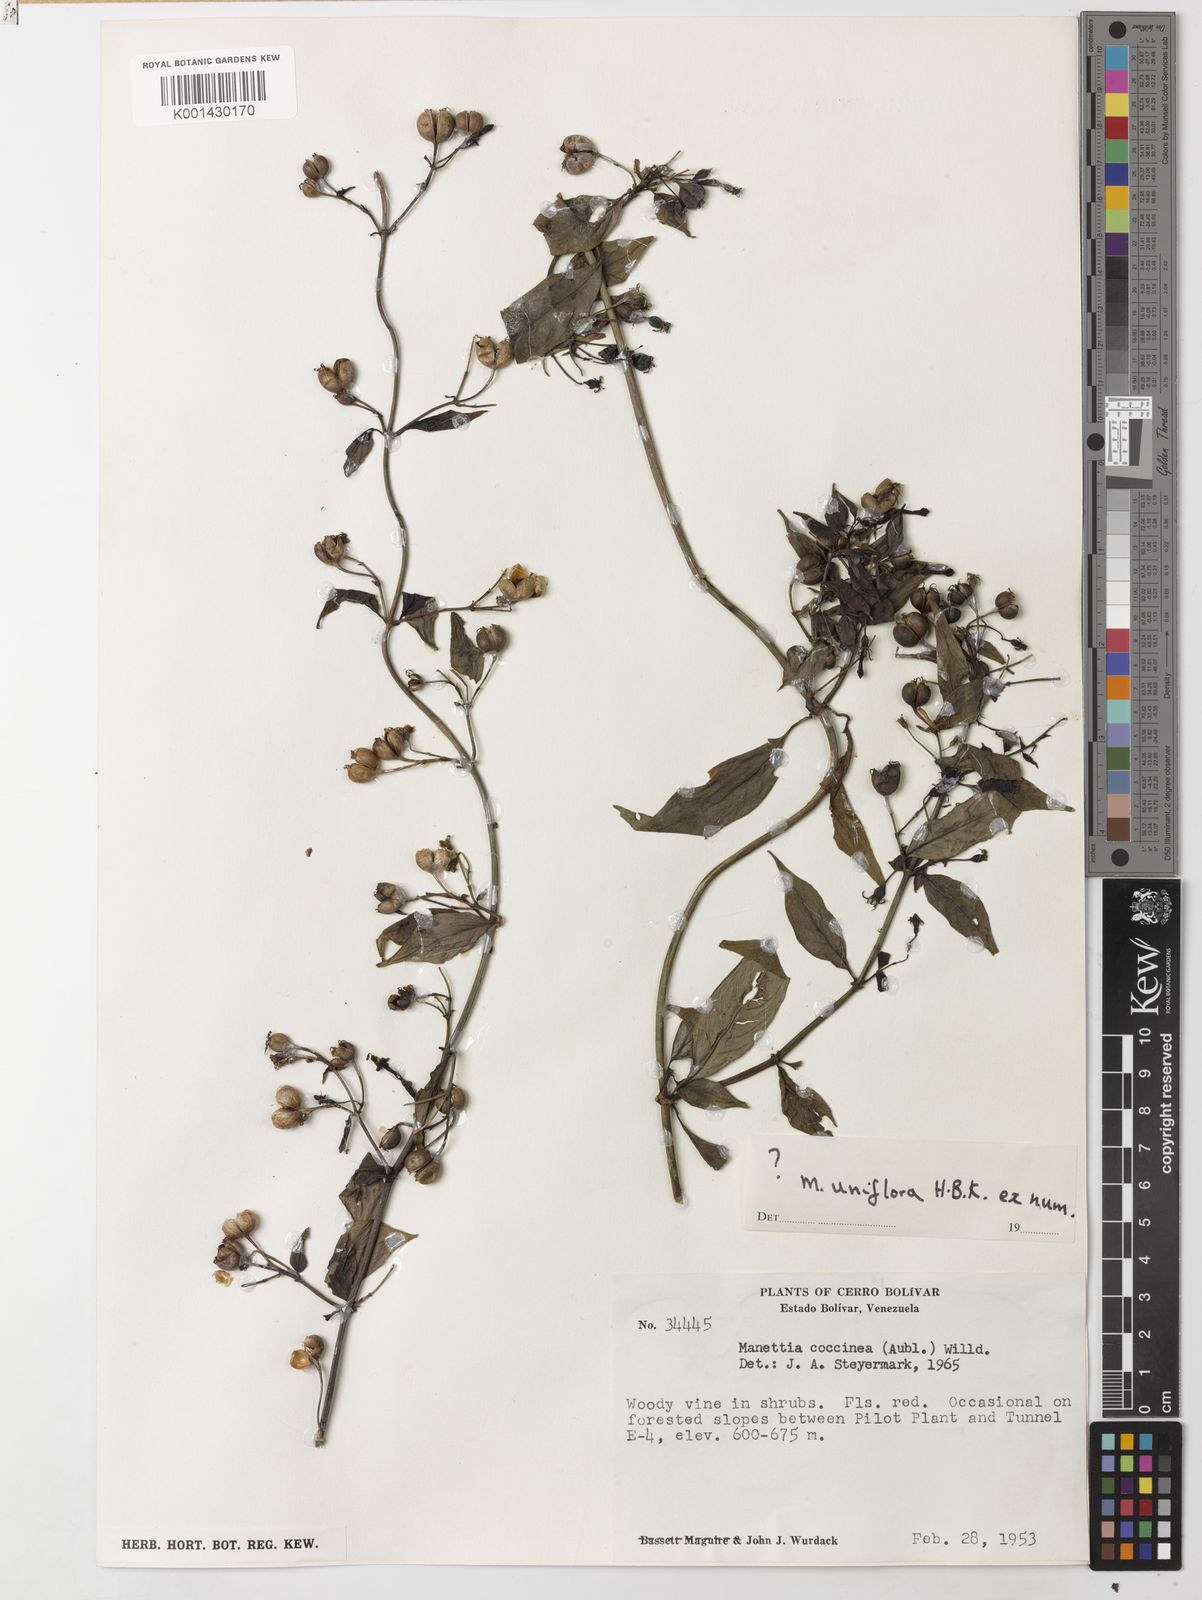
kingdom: Plantae
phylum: Tracheophyta
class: Magnoliopsida
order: Gentianales
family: Rubiaceae
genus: Manettia
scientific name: Manettia reclinata
